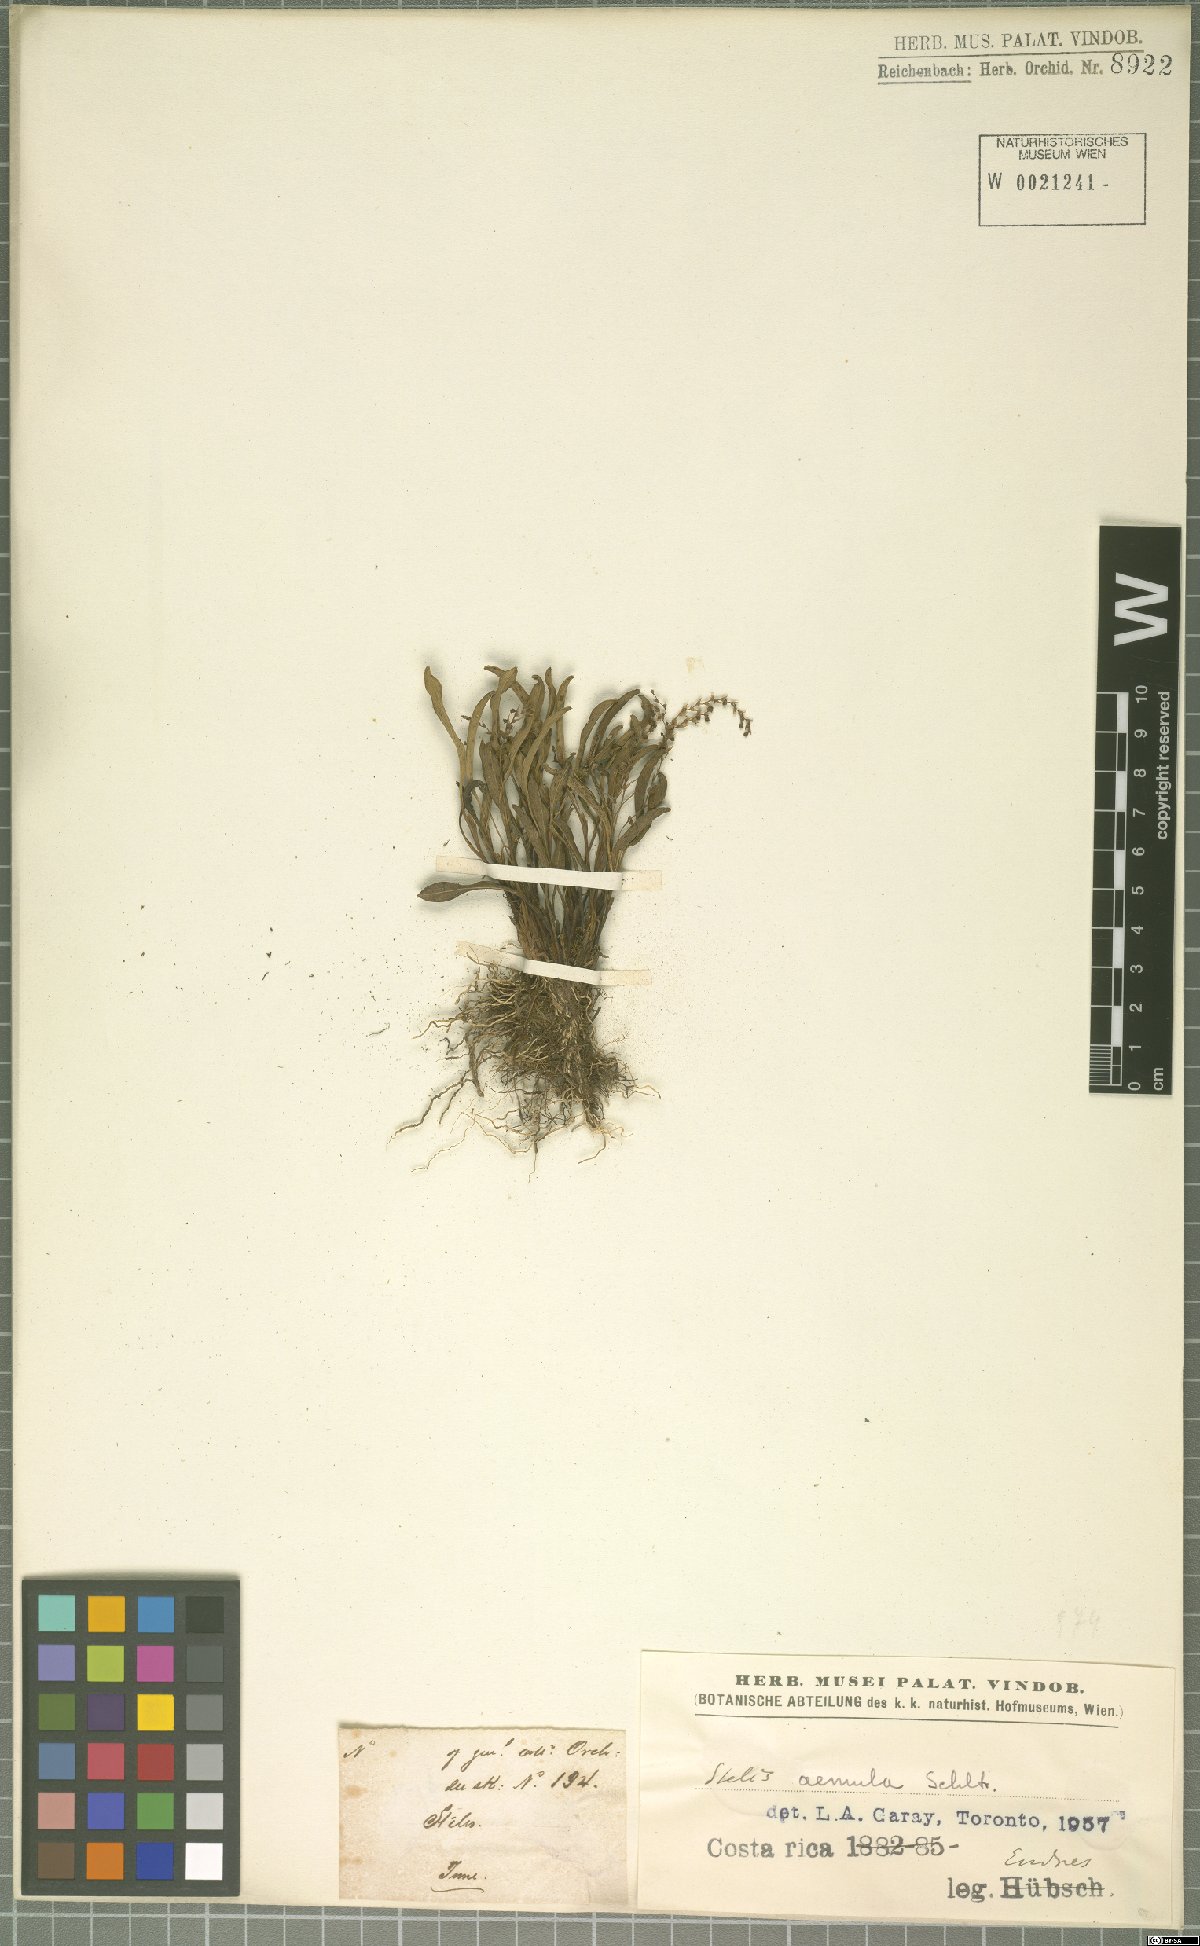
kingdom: Plantae
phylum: Tracheophyta
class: Liliopsida
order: Asparagales
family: Orchidaceae
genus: Stelis
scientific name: Stelis aemula
